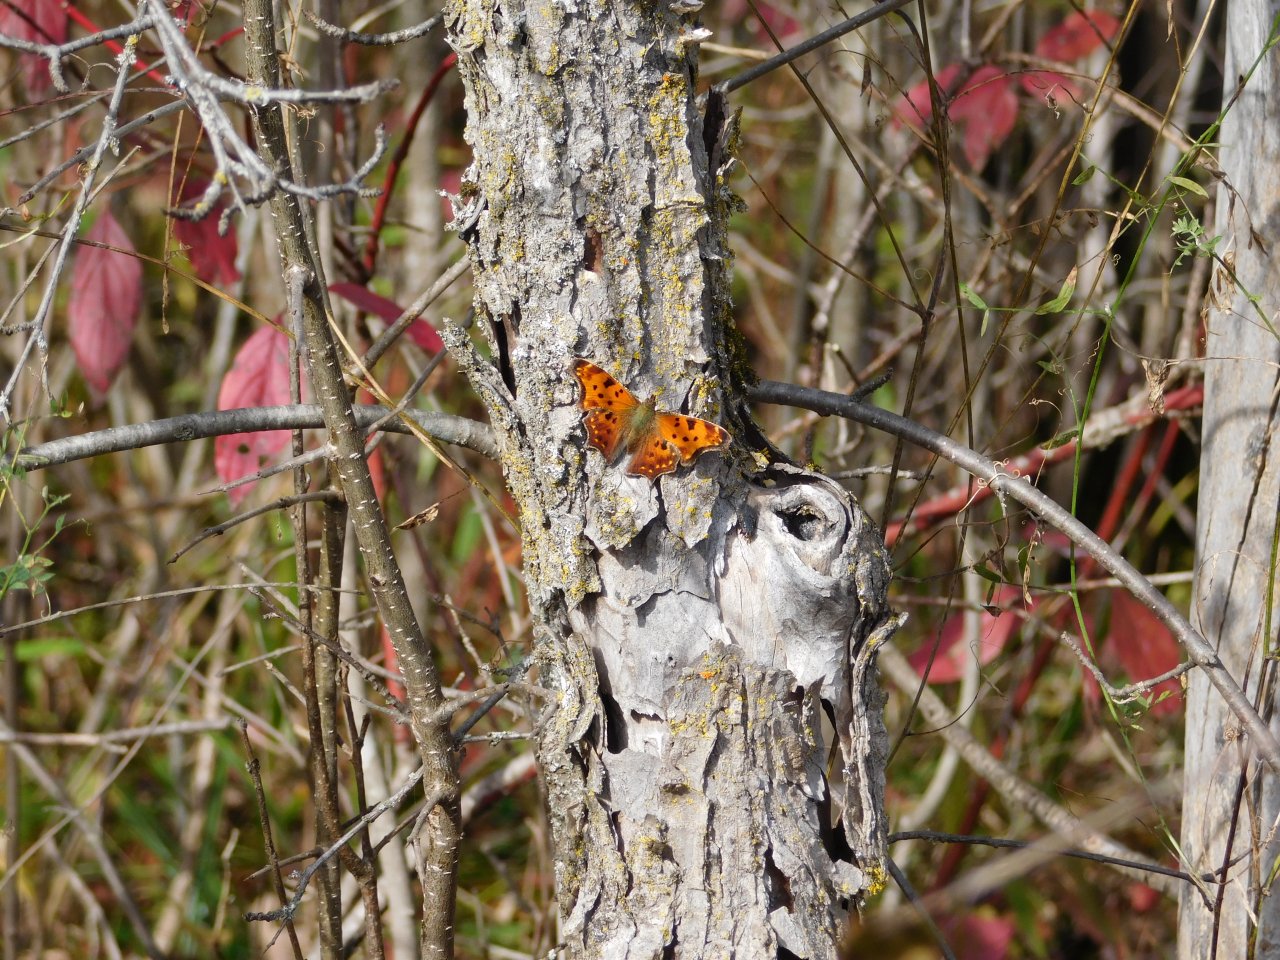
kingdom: Animalia
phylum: Arthropoda
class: Insecta
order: Lepidoptera
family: Nymphalidae
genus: Polygonia
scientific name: Polygonia comma
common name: Eastern Comma
